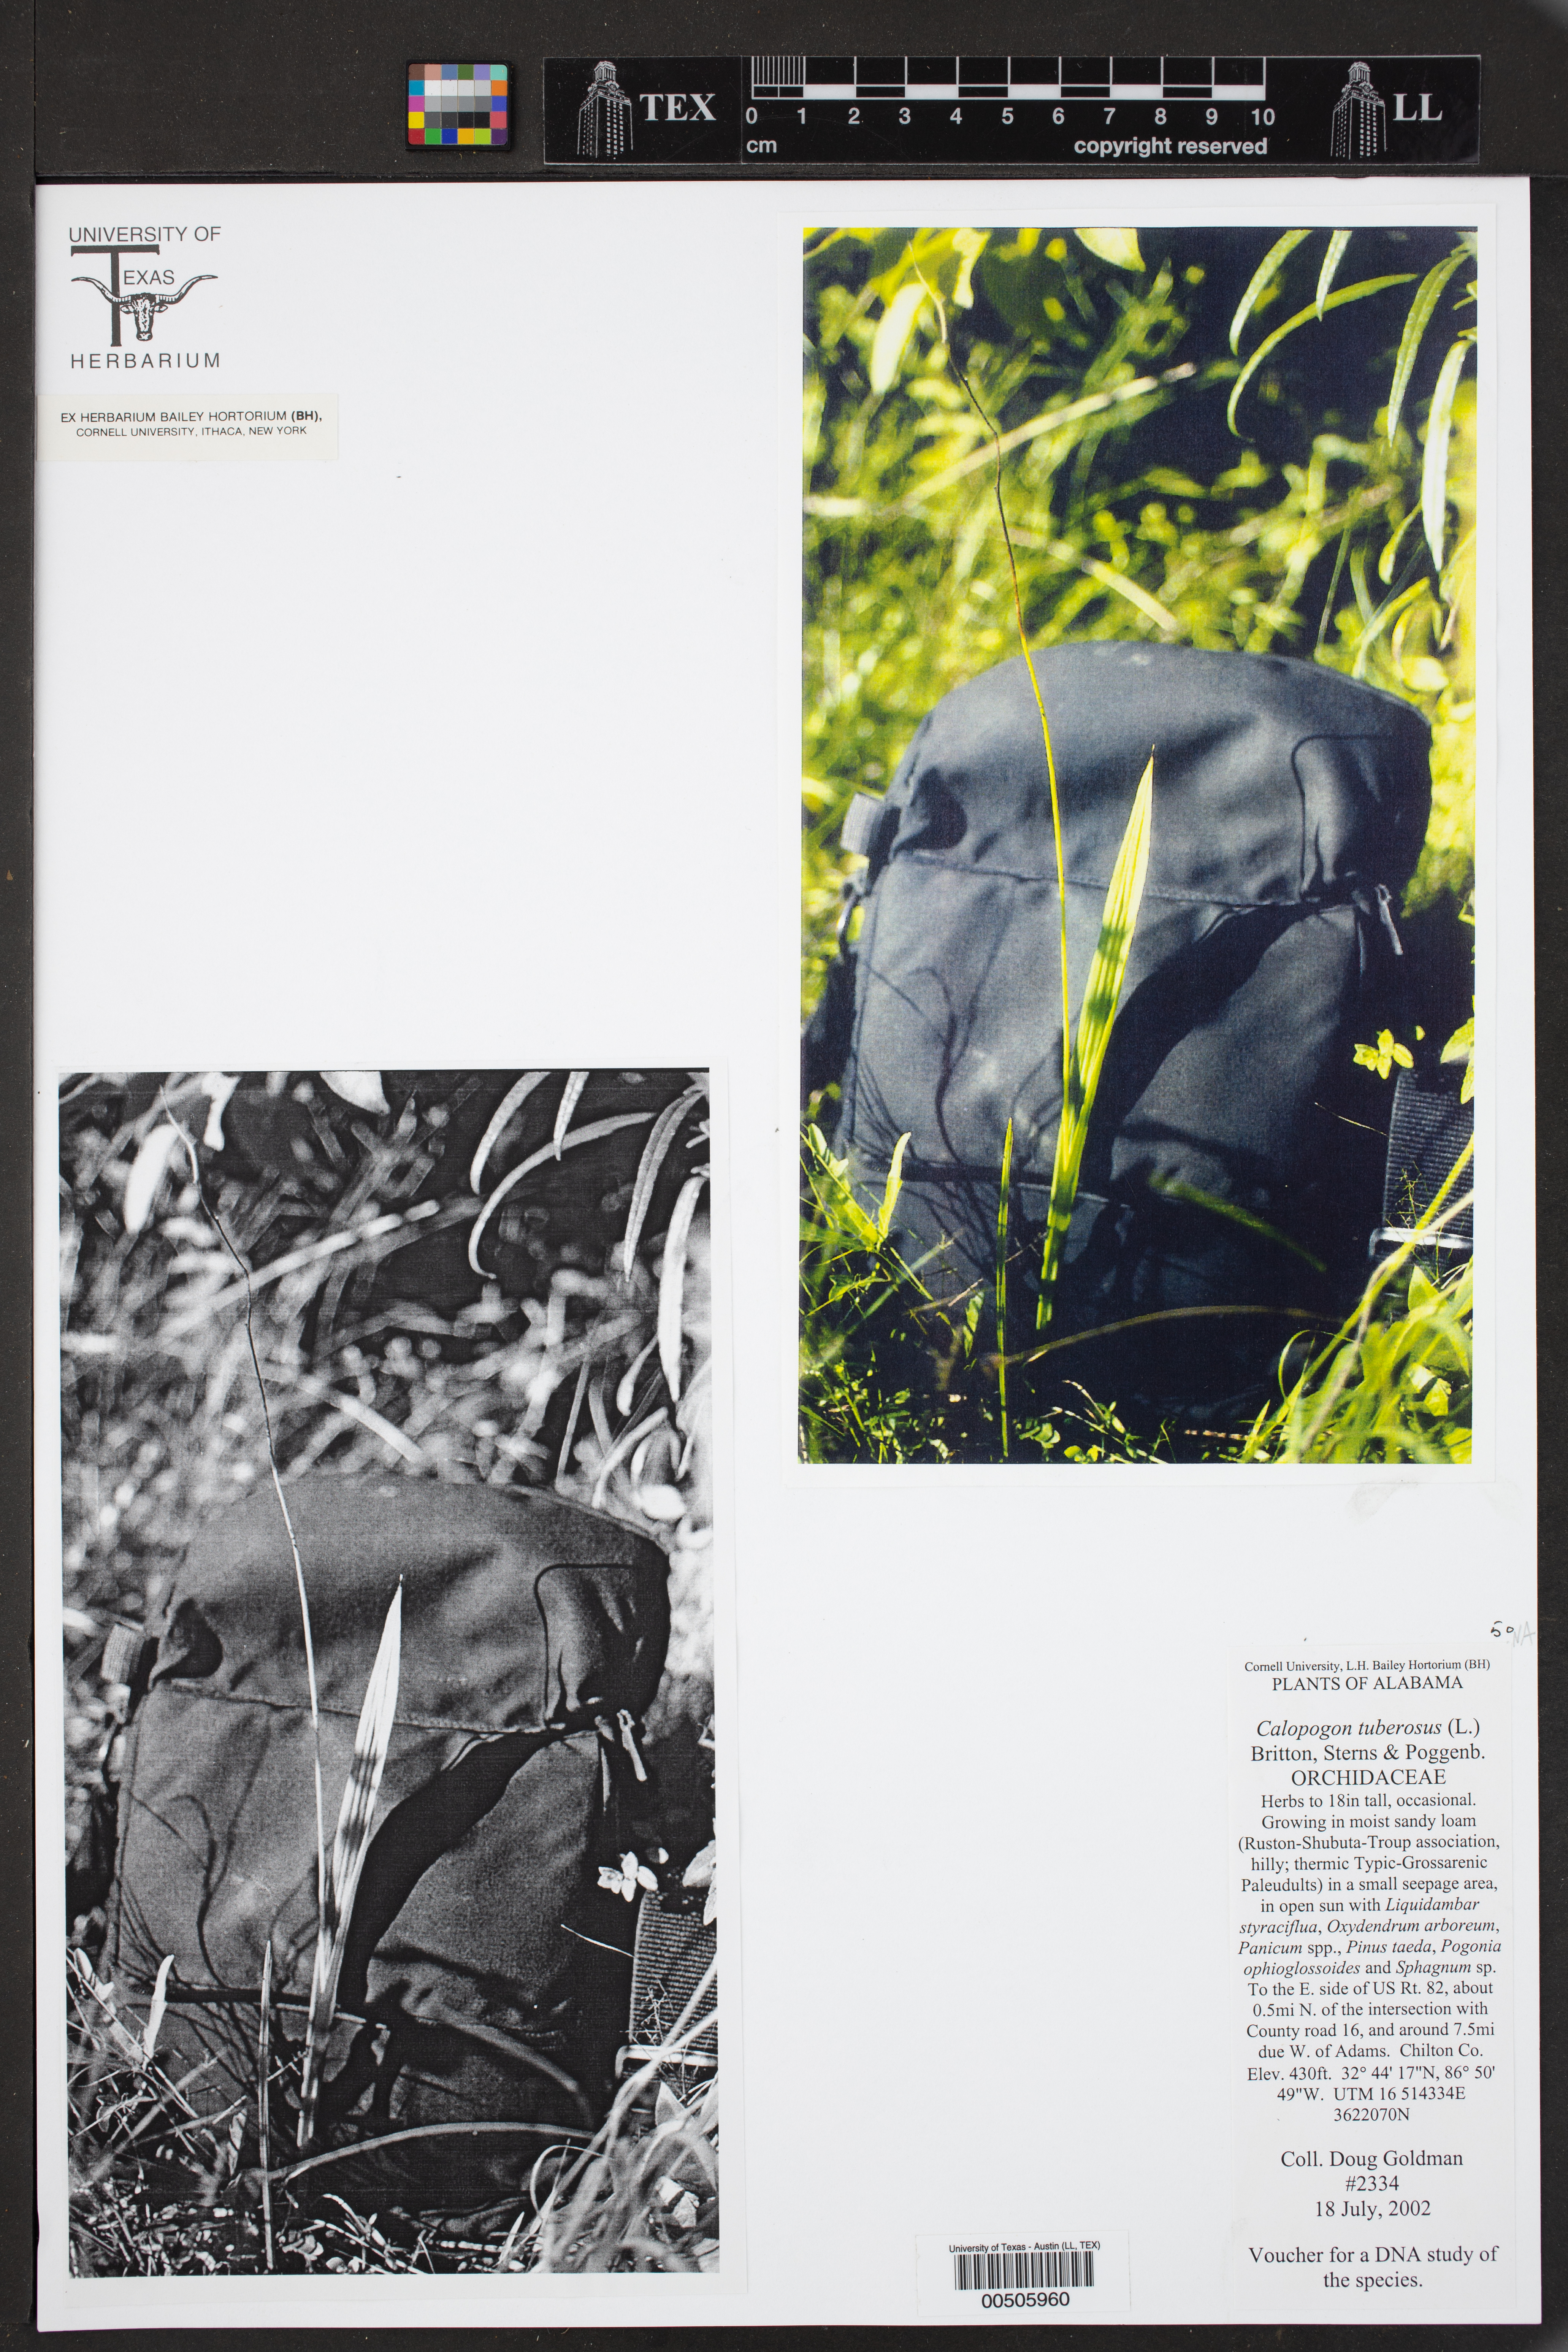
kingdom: Plantae
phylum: Tracheophyta
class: Liliopsida
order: Asparagales
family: Orchidaceae
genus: Calopogon
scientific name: Calopogon tuberosus
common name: Grass-pink
